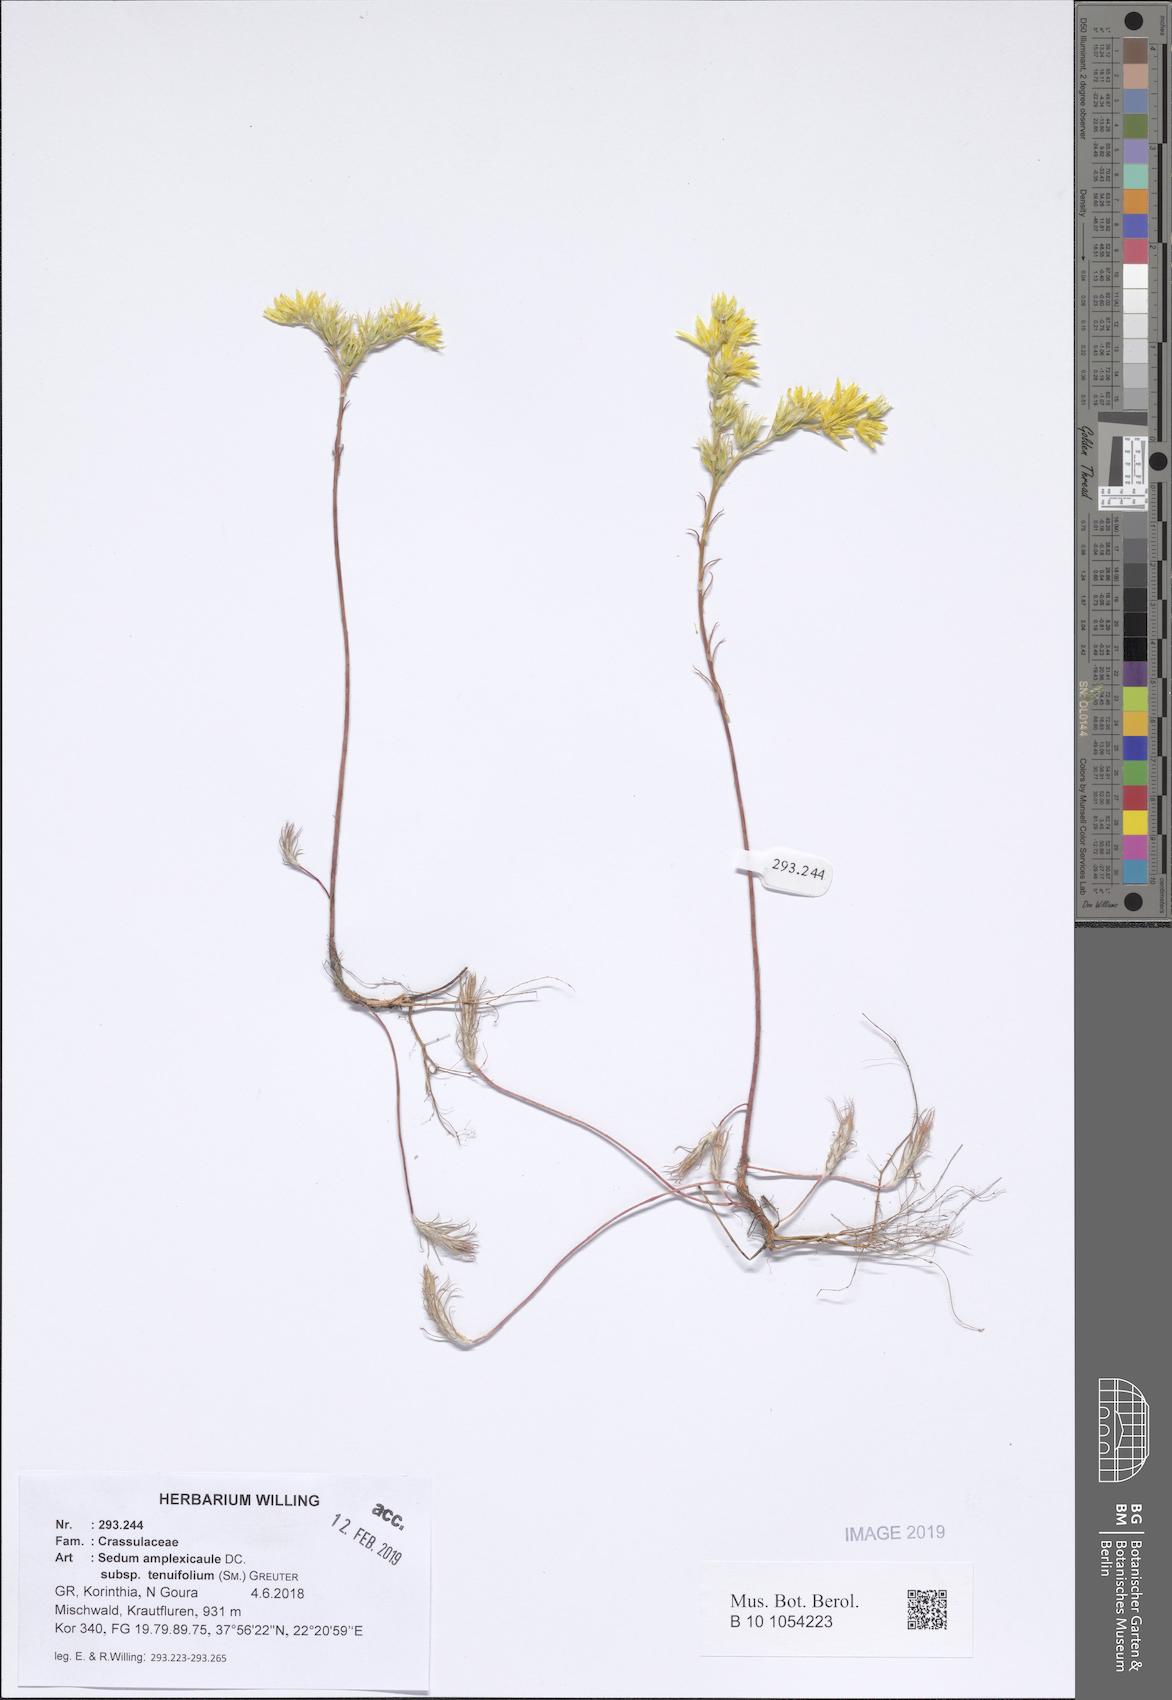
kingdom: Plantae
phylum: Tracheophyta
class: Magnoliopsida
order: Saxifragales
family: Crassulaceae
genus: Petrosedum
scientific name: Petrosedum tenuifolium
